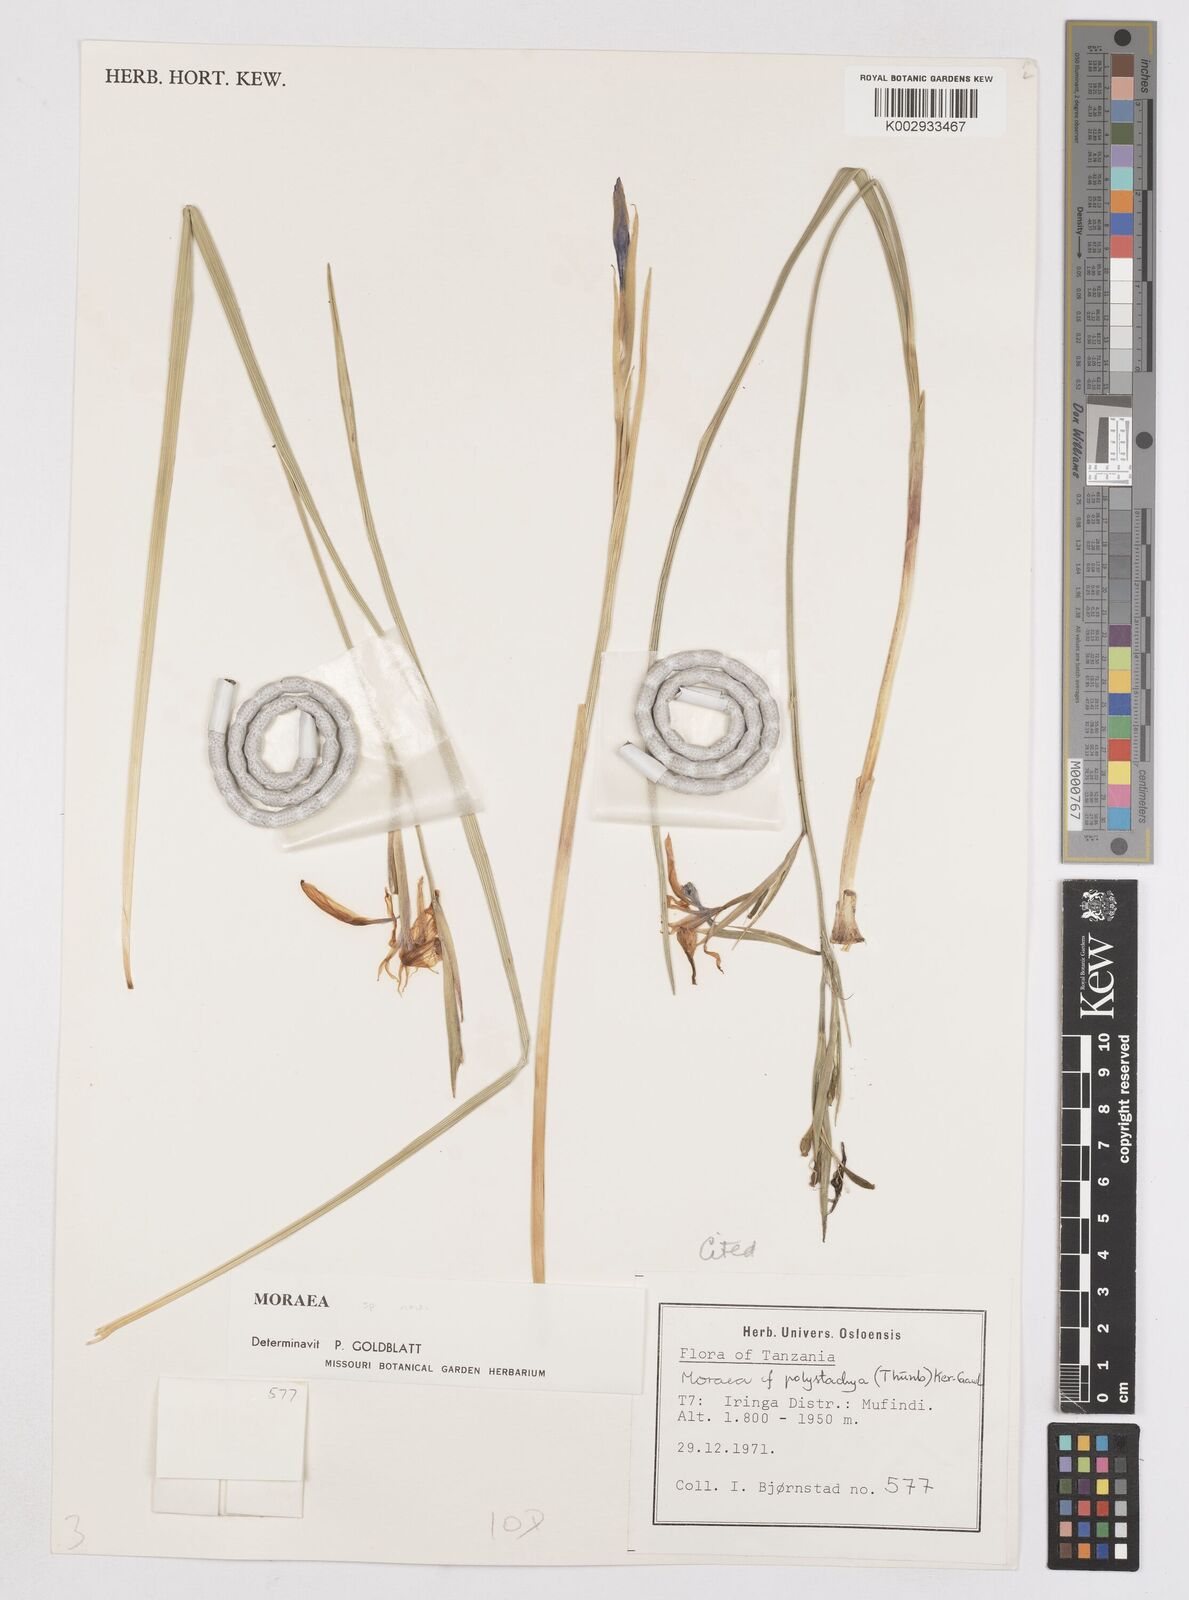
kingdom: Plantae
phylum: Tracheophyta
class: Liliopsida
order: Asparagales
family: Iridaceae
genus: Moraea
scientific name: Moraea iringensis
